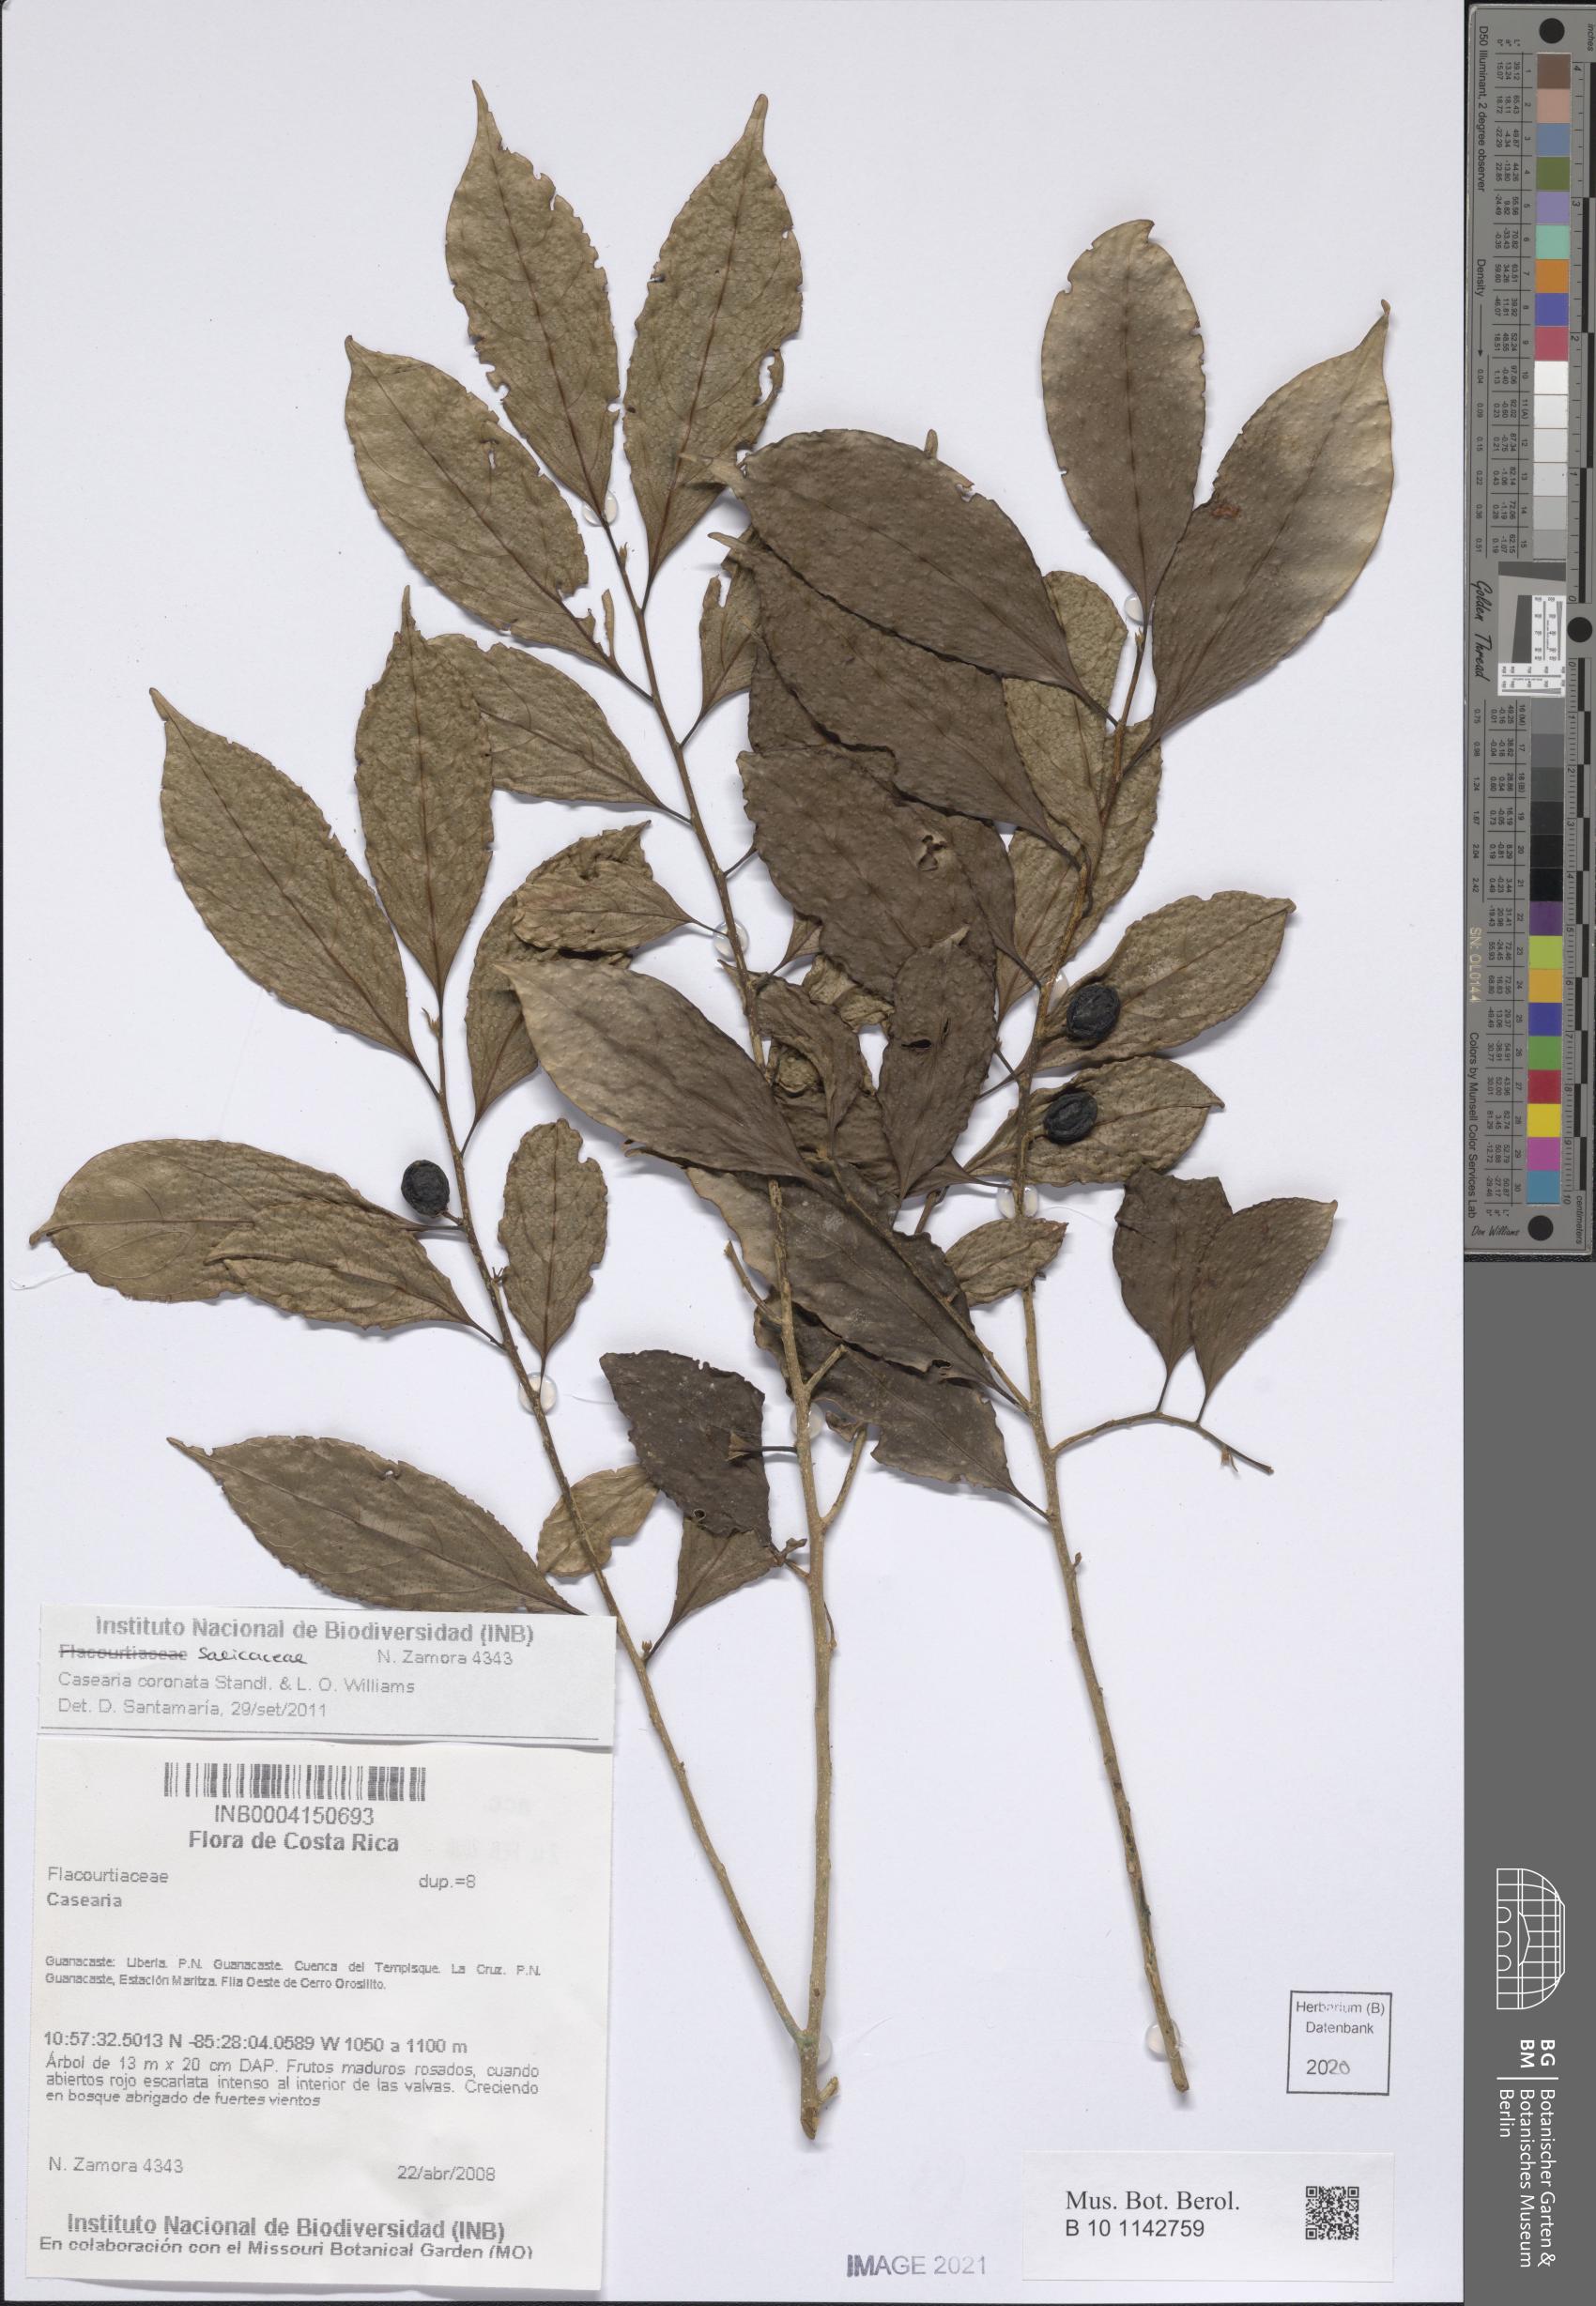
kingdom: Plantae
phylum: Tracheophyta
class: Magnoliopsida
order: Malpighiales
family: Salicaceae
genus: Casearia
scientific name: Casearia coronata
